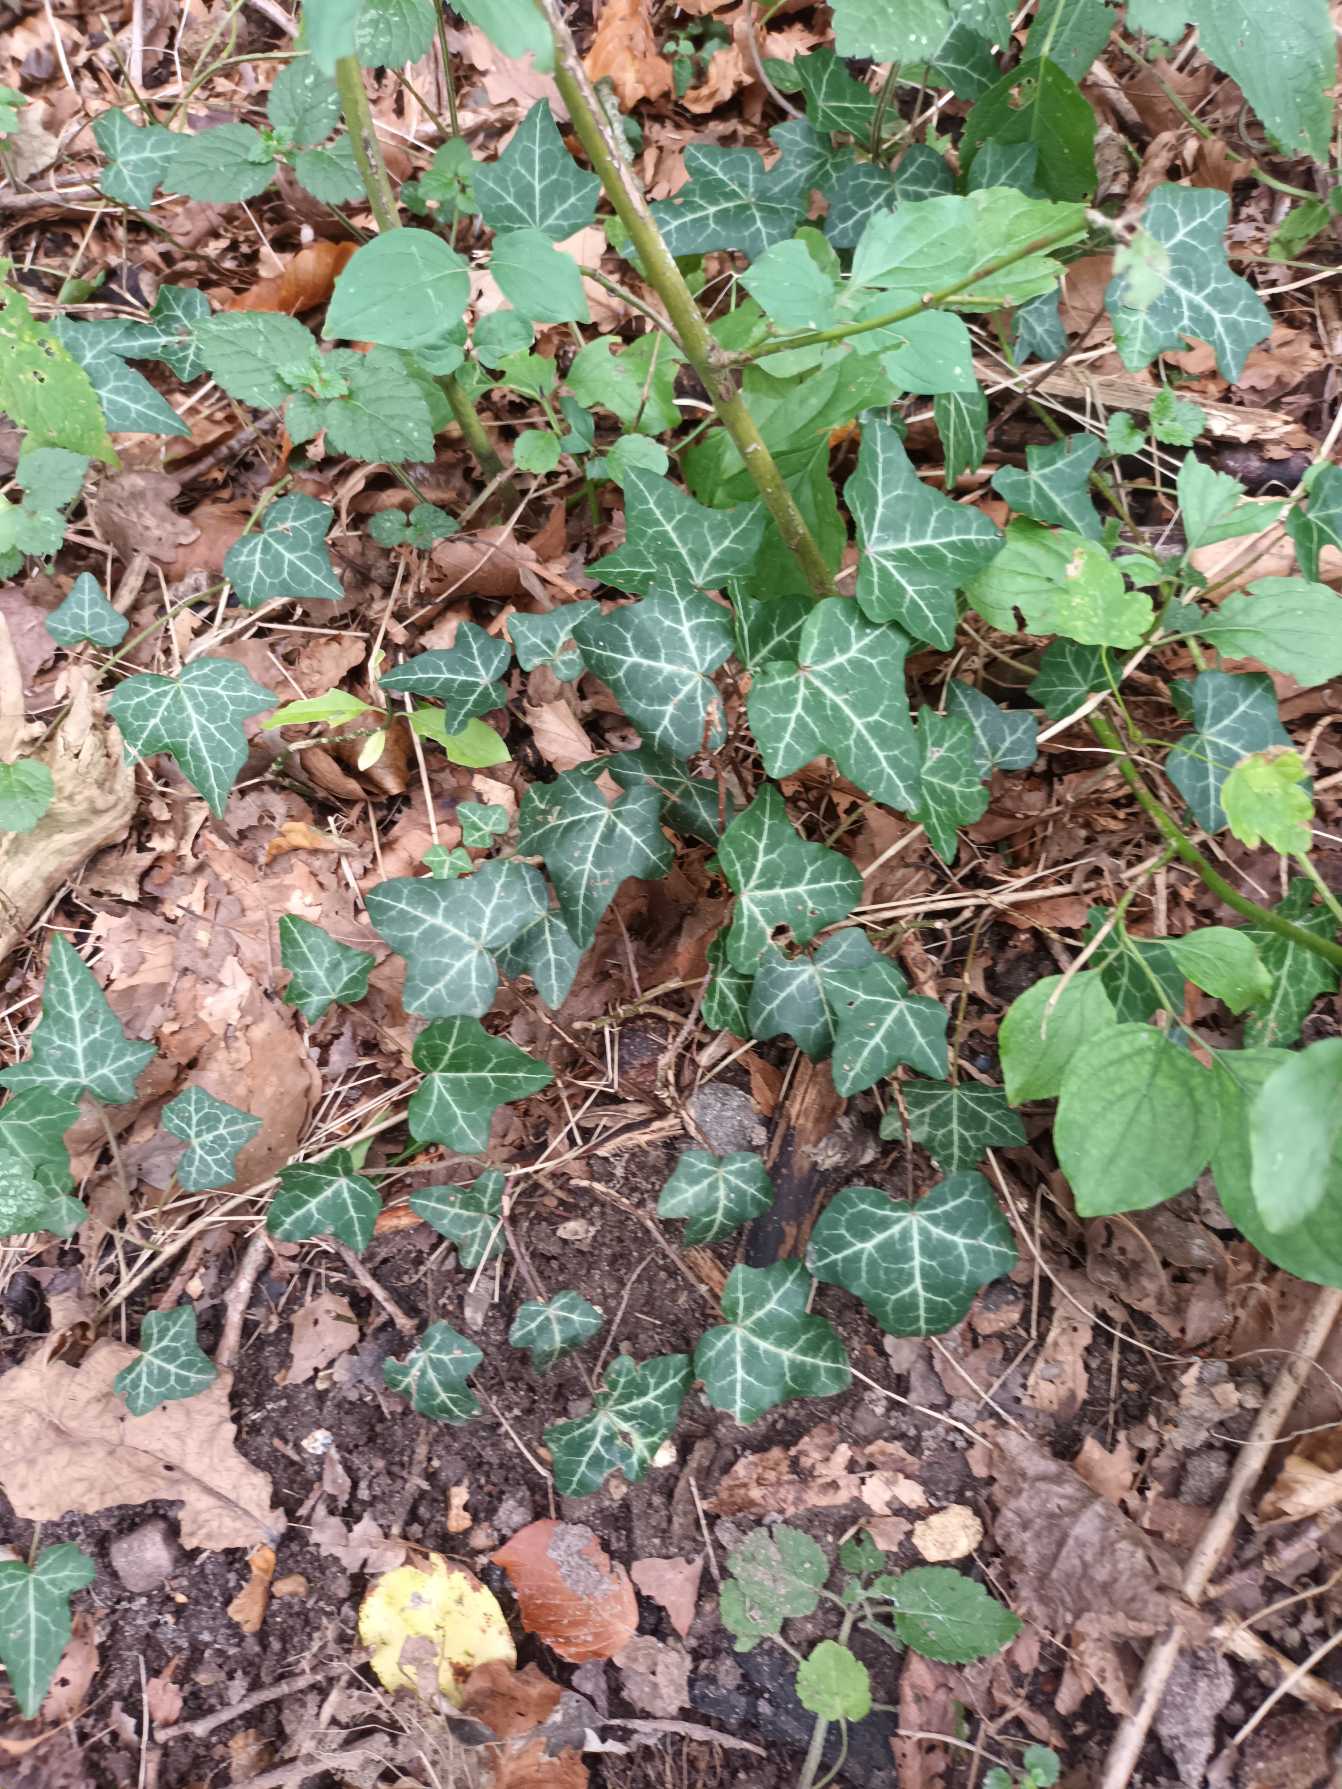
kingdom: Plantae
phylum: Tracheophyta
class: Magnoliopsida
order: Apiales
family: Araliaceae
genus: Hedera
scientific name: Hedera helix
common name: Vedbend
